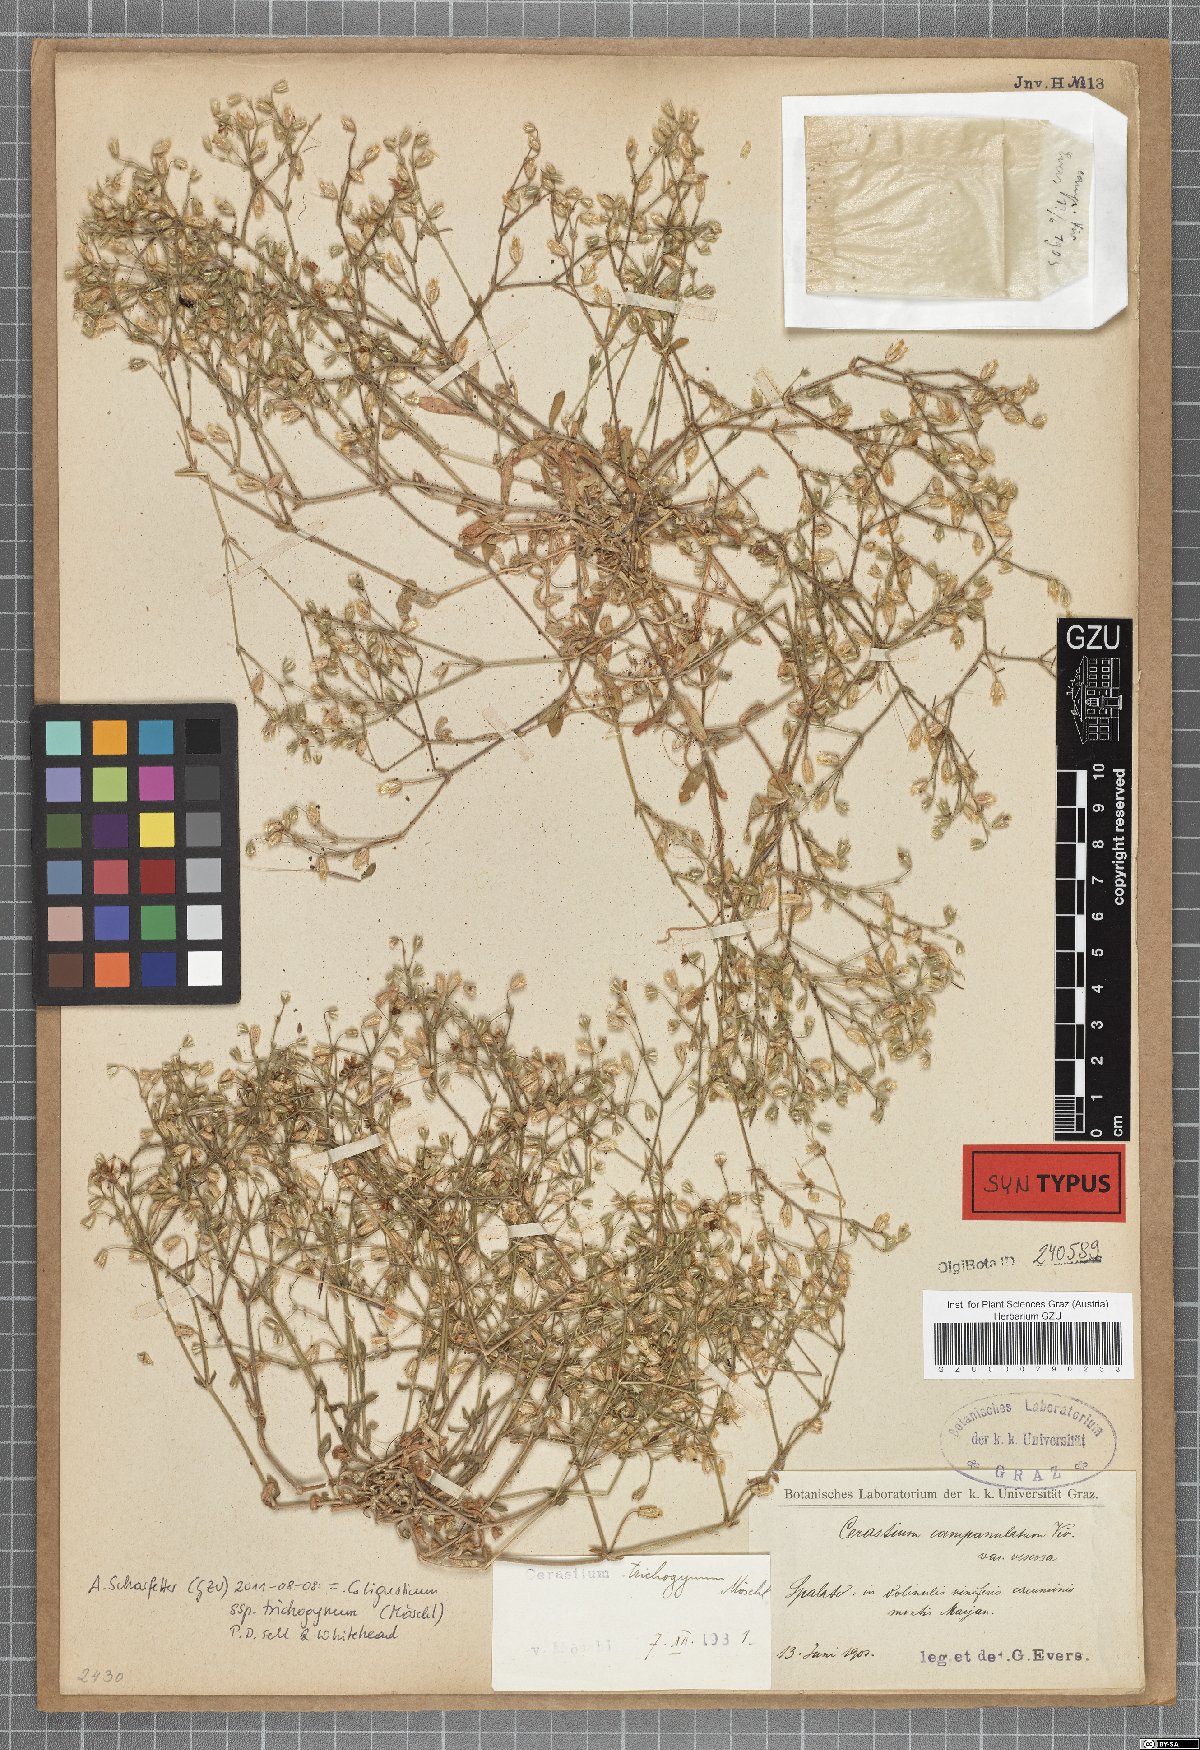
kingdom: Plantae
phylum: Tracheophyta
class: Magnoliopsida
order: Caryophyllales
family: Caryophyllaceae
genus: Cerastium
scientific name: Cerastium ligusticum
